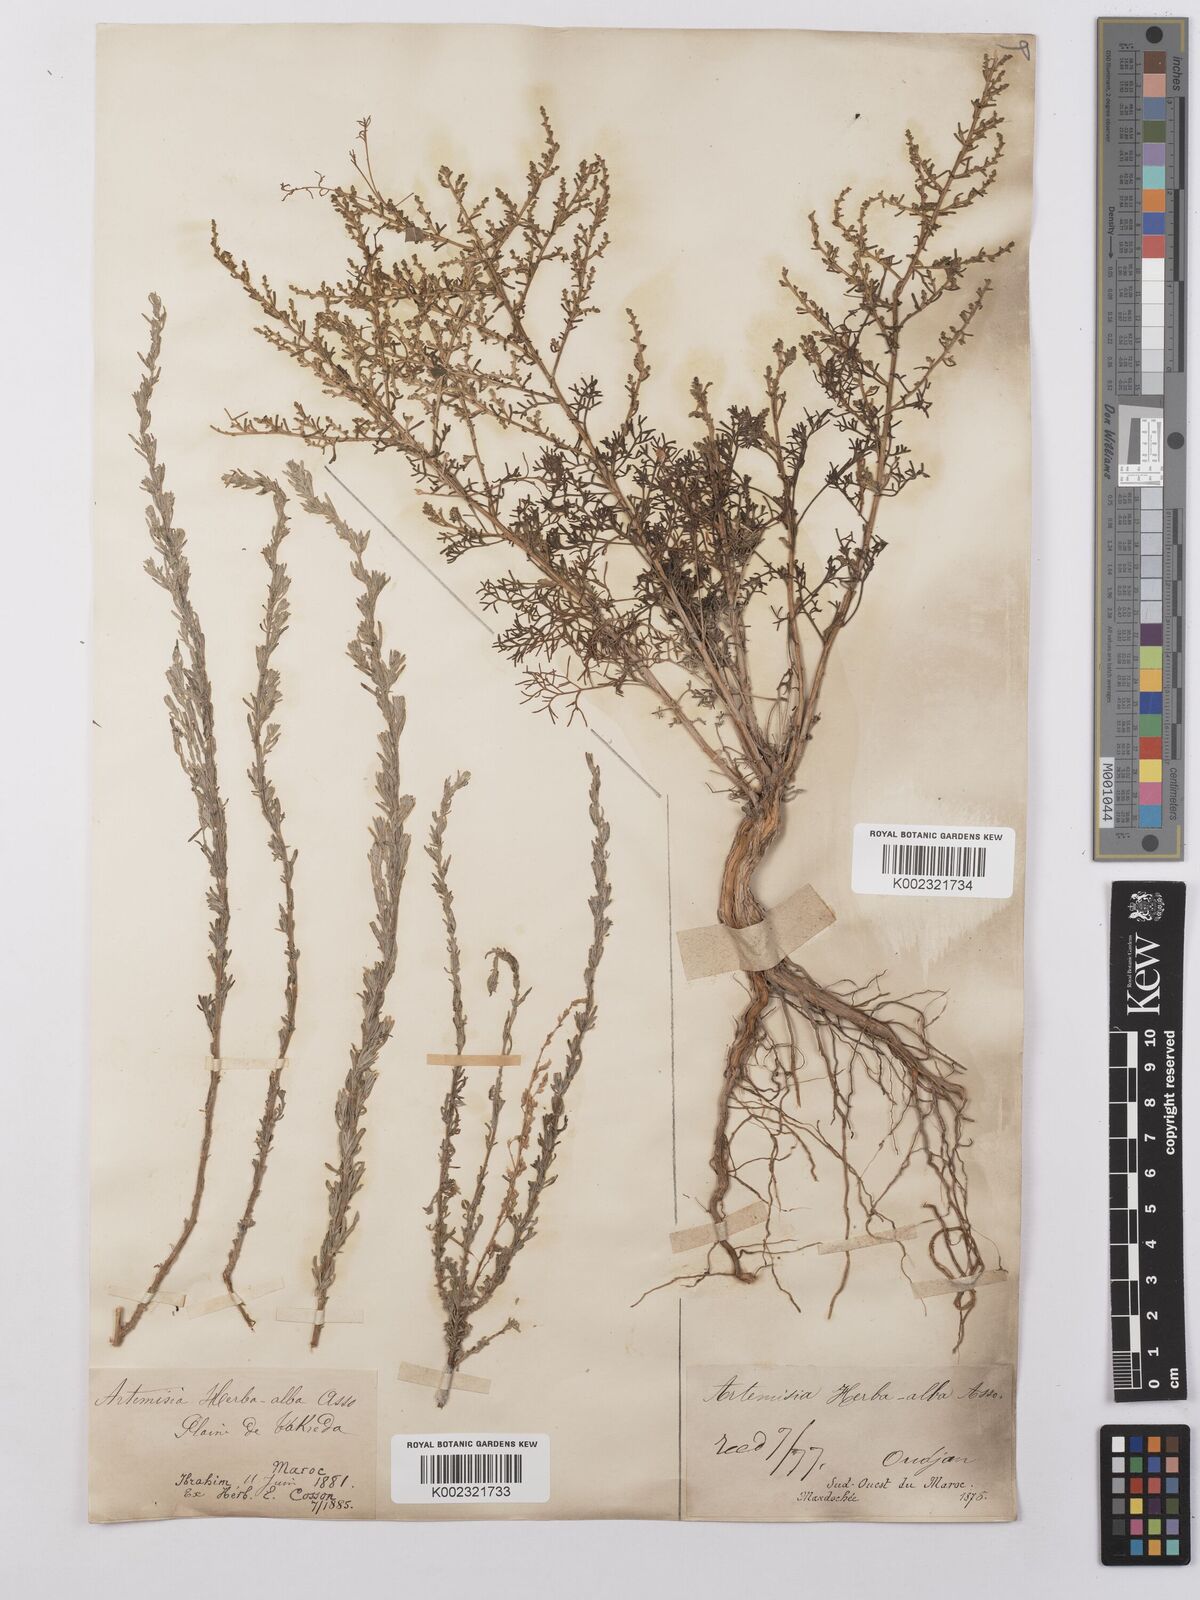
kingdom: Plantae
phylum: Tracheophyta
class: Magnoliopsida
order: Asterales
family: Asteraceae
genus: Artemisia
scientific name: Artemisia herba-alba
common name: White wormwood
